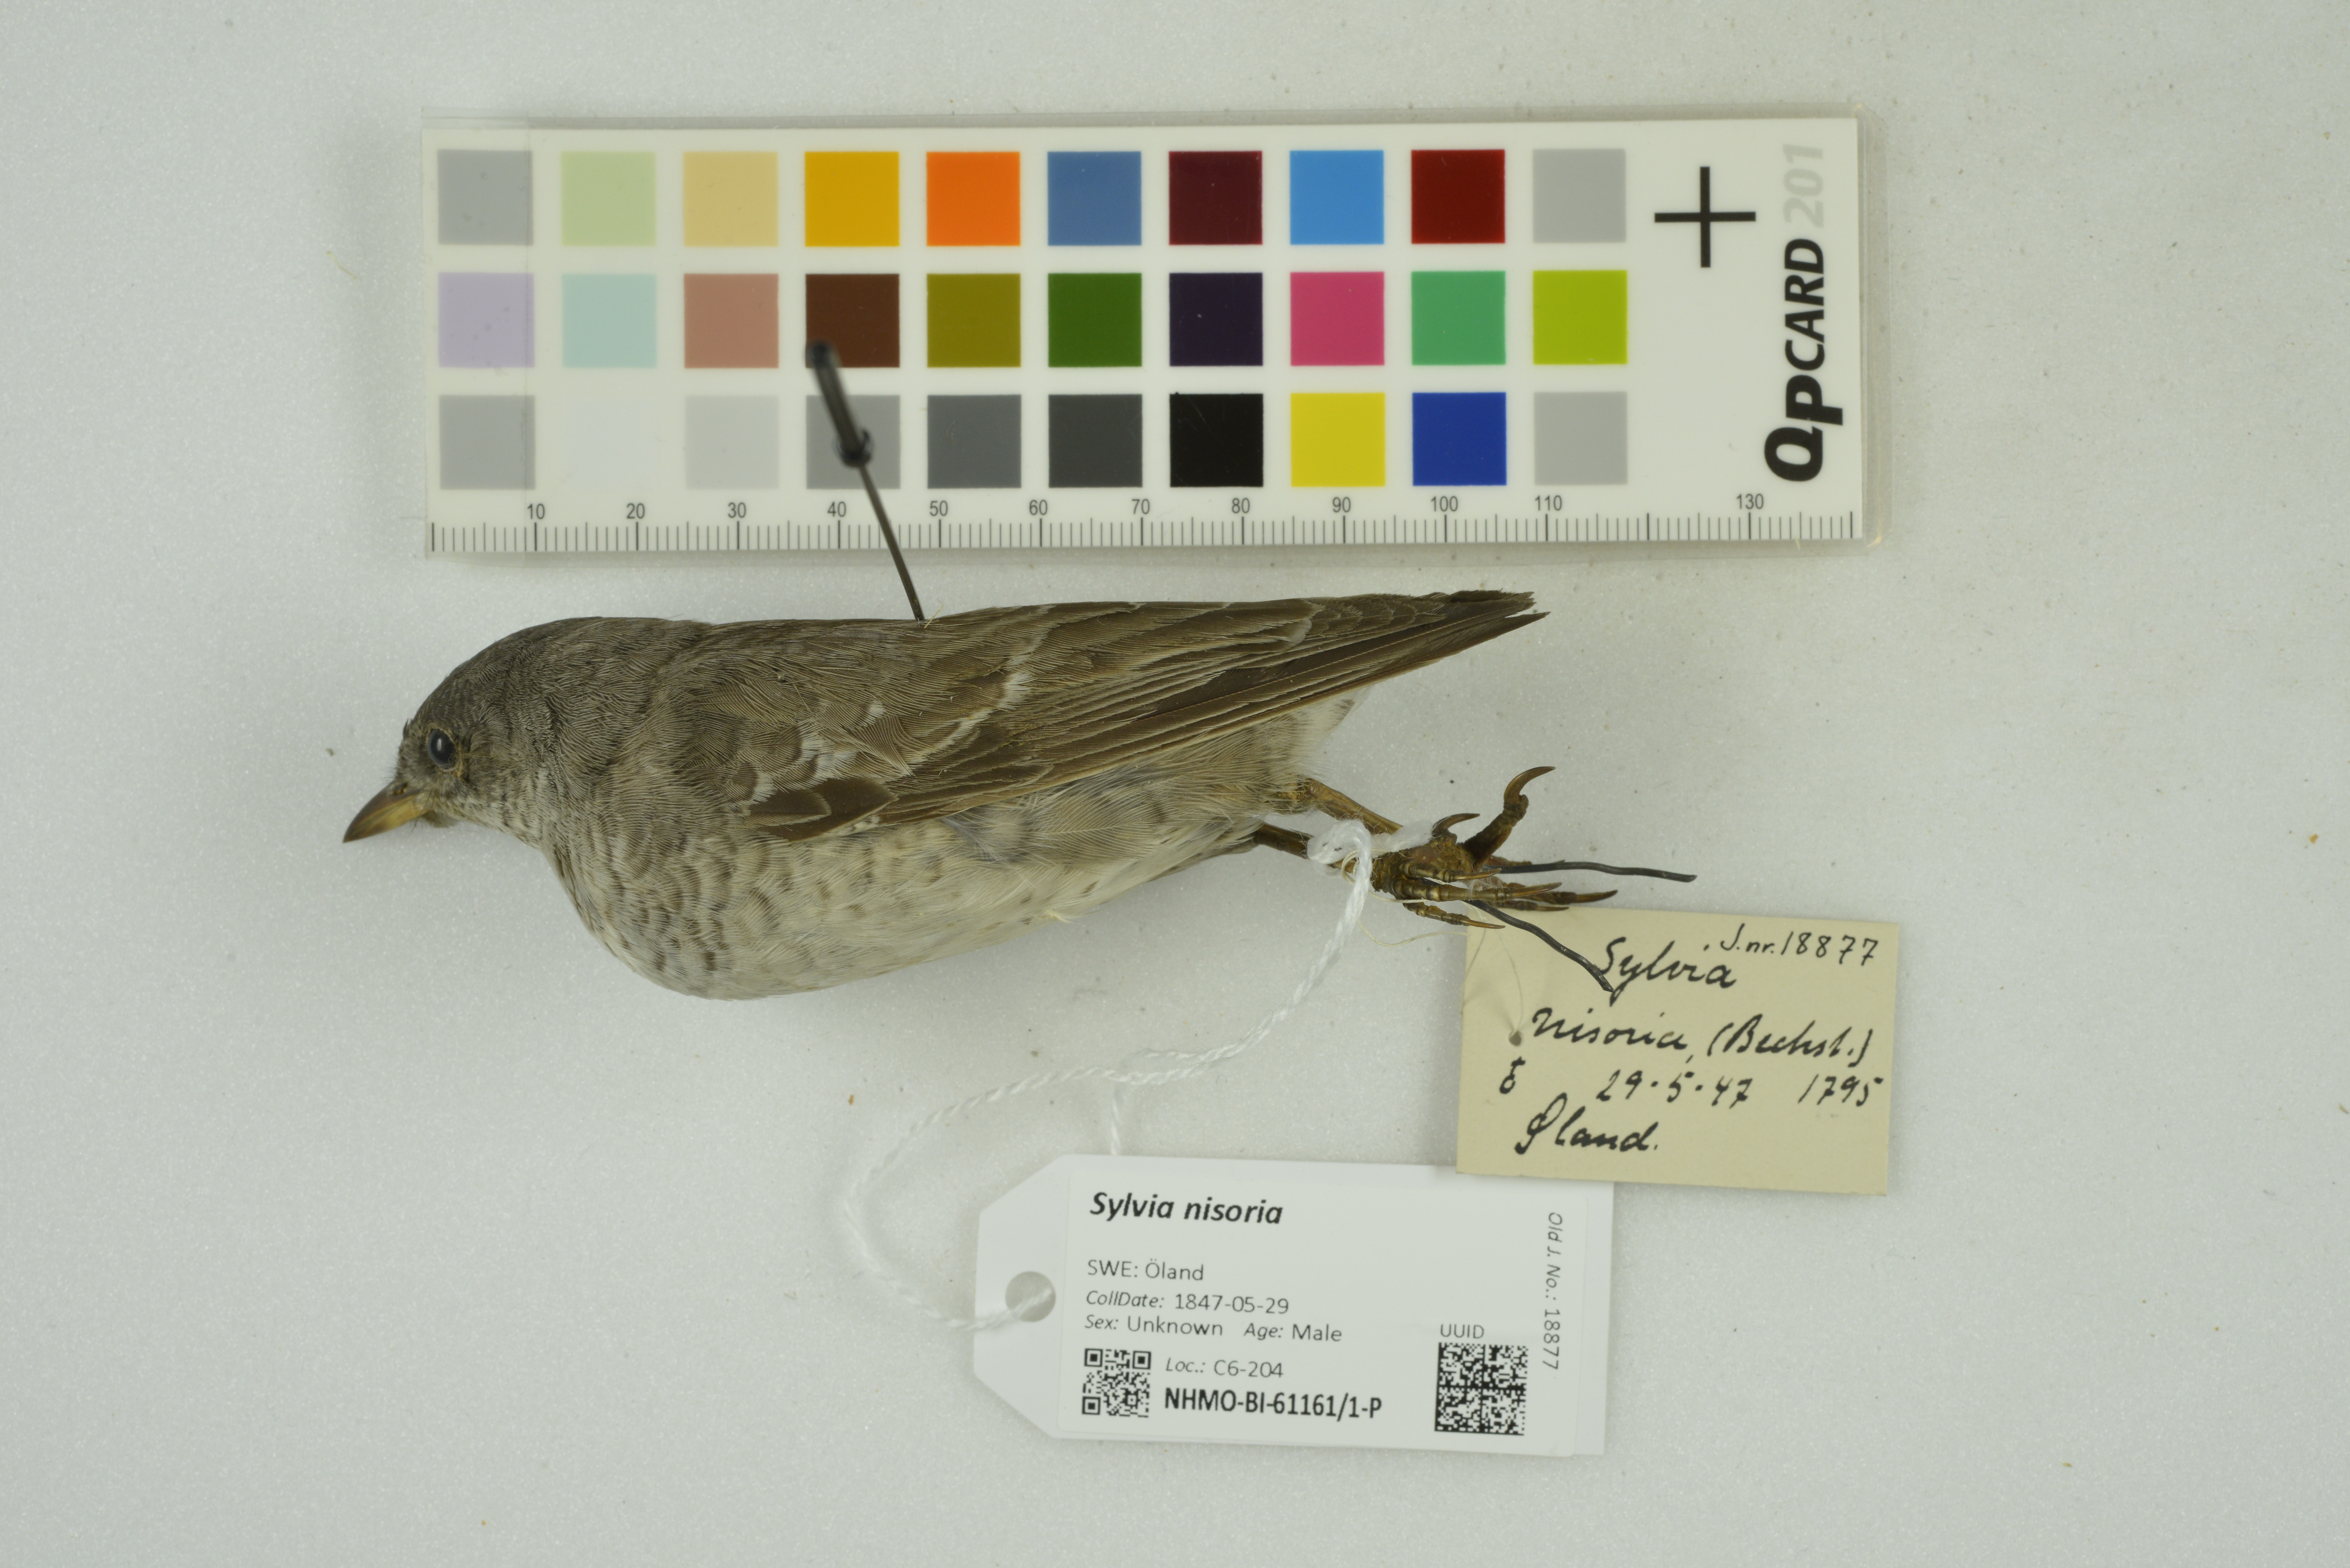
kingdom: Animalia
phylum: Chordata
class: Aves
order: Passeriformes
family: Sylviidae
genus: Sylvia
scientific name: Sylvia nisoria
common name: Barred warbler
